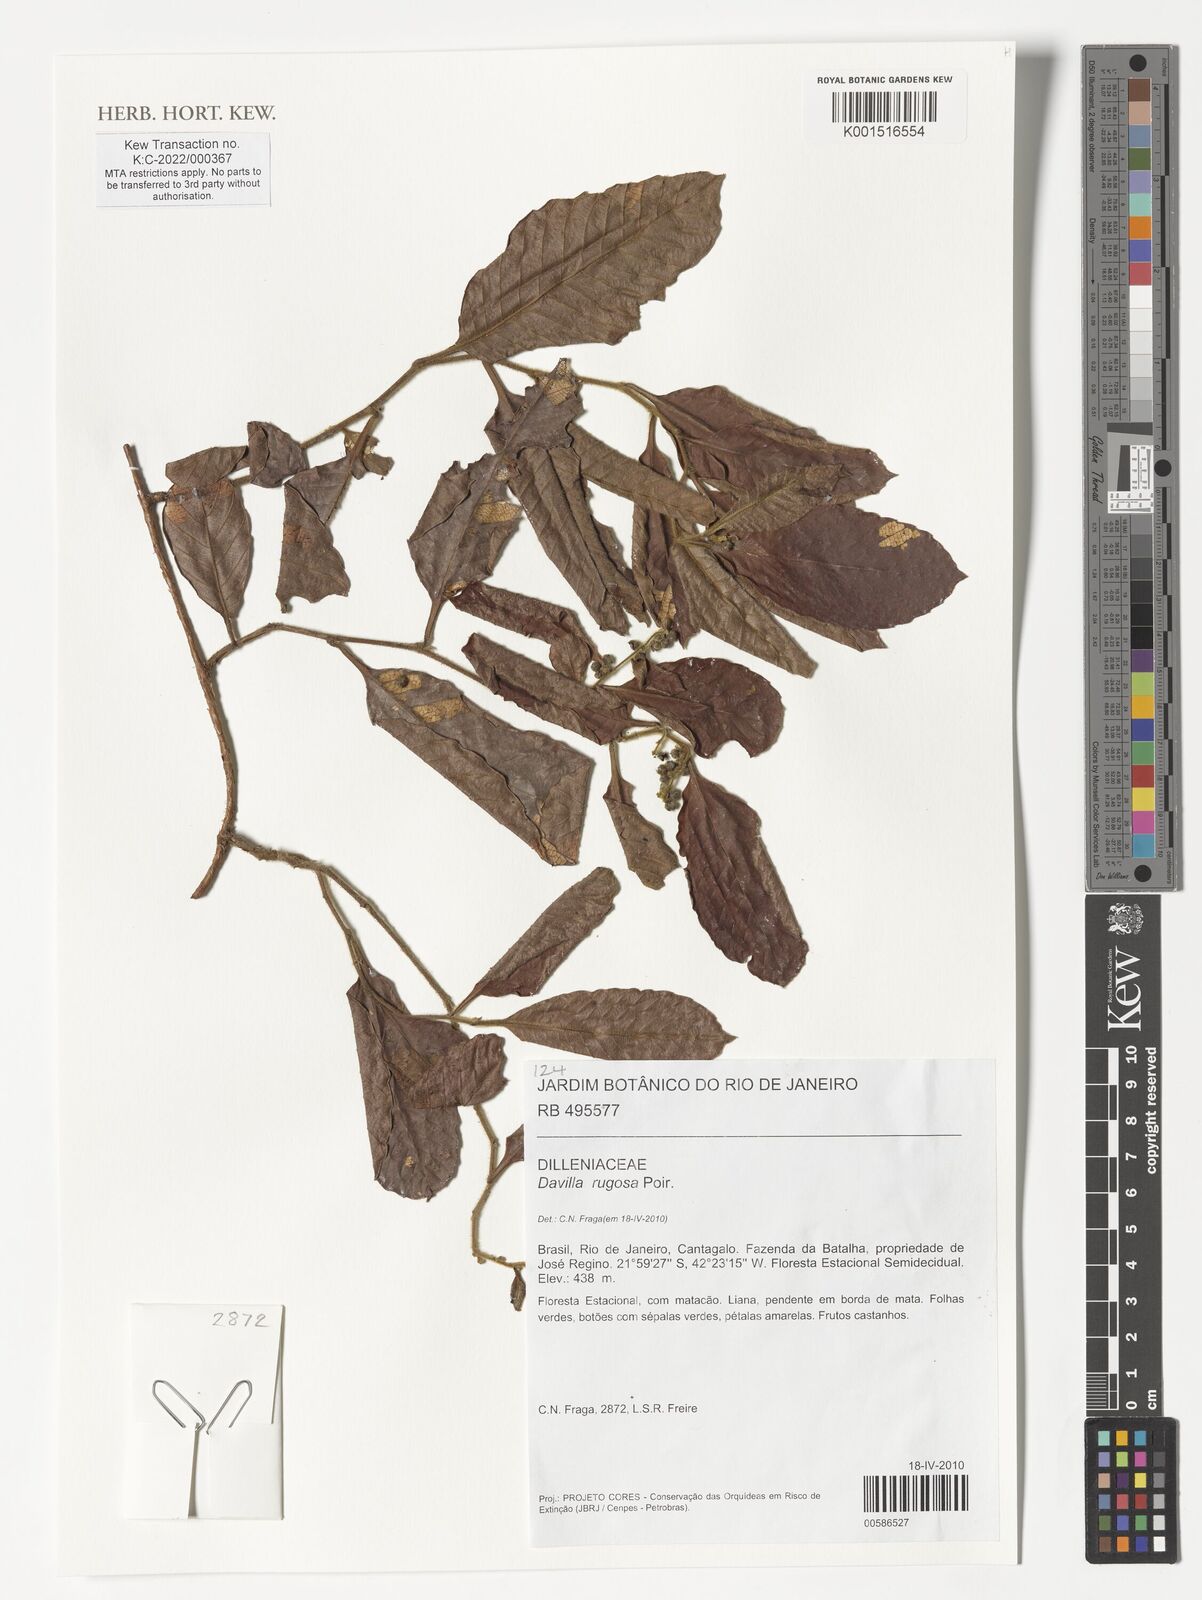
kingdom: Plantae
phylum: Tracheophyta
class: Magnoliopsida
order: Dilleniales
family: Dilleniaceae
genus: Davilla
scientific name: Davilla rugosa
